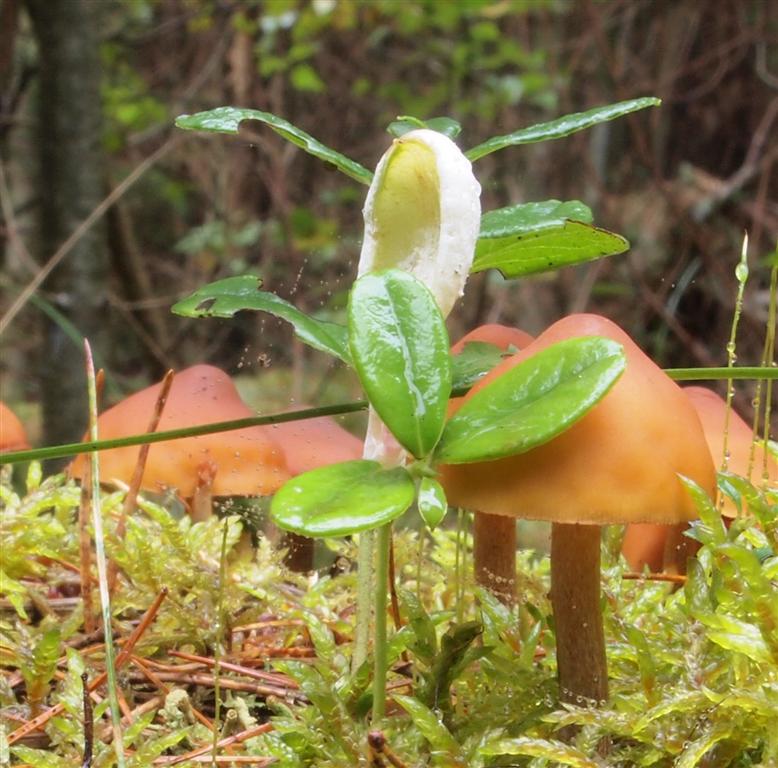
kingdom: Fungi
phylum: Basidiomycota
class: Exobasidiomycetes
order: Exobasidiales
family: Exobasidiaceae
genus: Exobasidium
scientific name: Exobasidium vaccinii
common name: tyttebærblad-bøllesvamp
